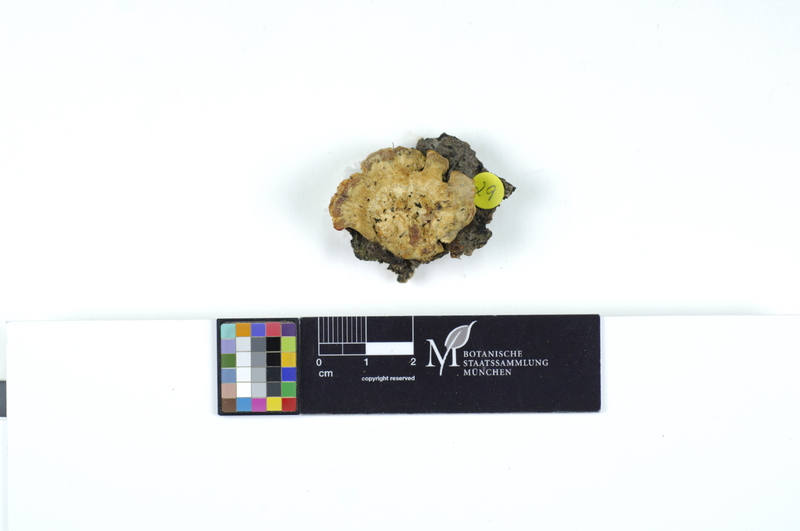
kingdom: Plantae
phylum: Tracheophyta
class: Magnoliopsida
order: Fagales
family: Fagaceae
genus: Fagus
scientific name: Fagus sylvatica
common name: Beech
